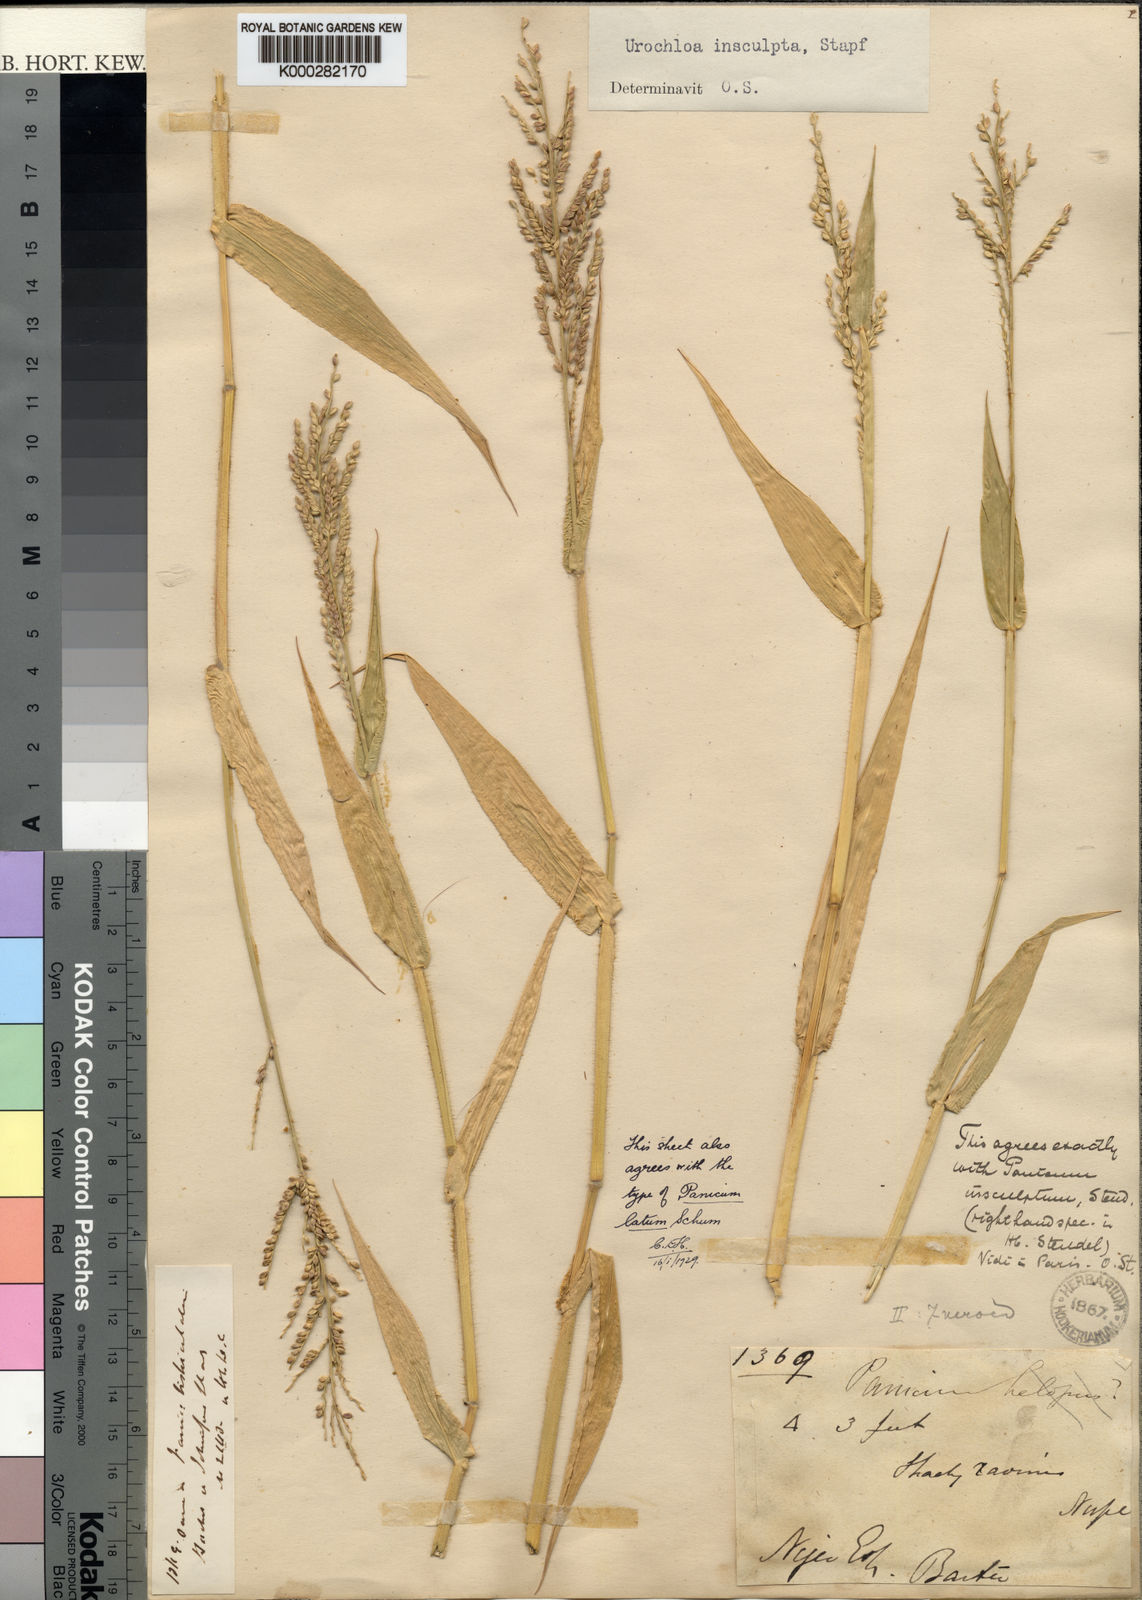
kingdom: Plantae
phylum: Tracheophyta
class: Liliopsida
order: Poales
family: Poaceae
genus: Urochloa
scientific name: Urochloa lata
